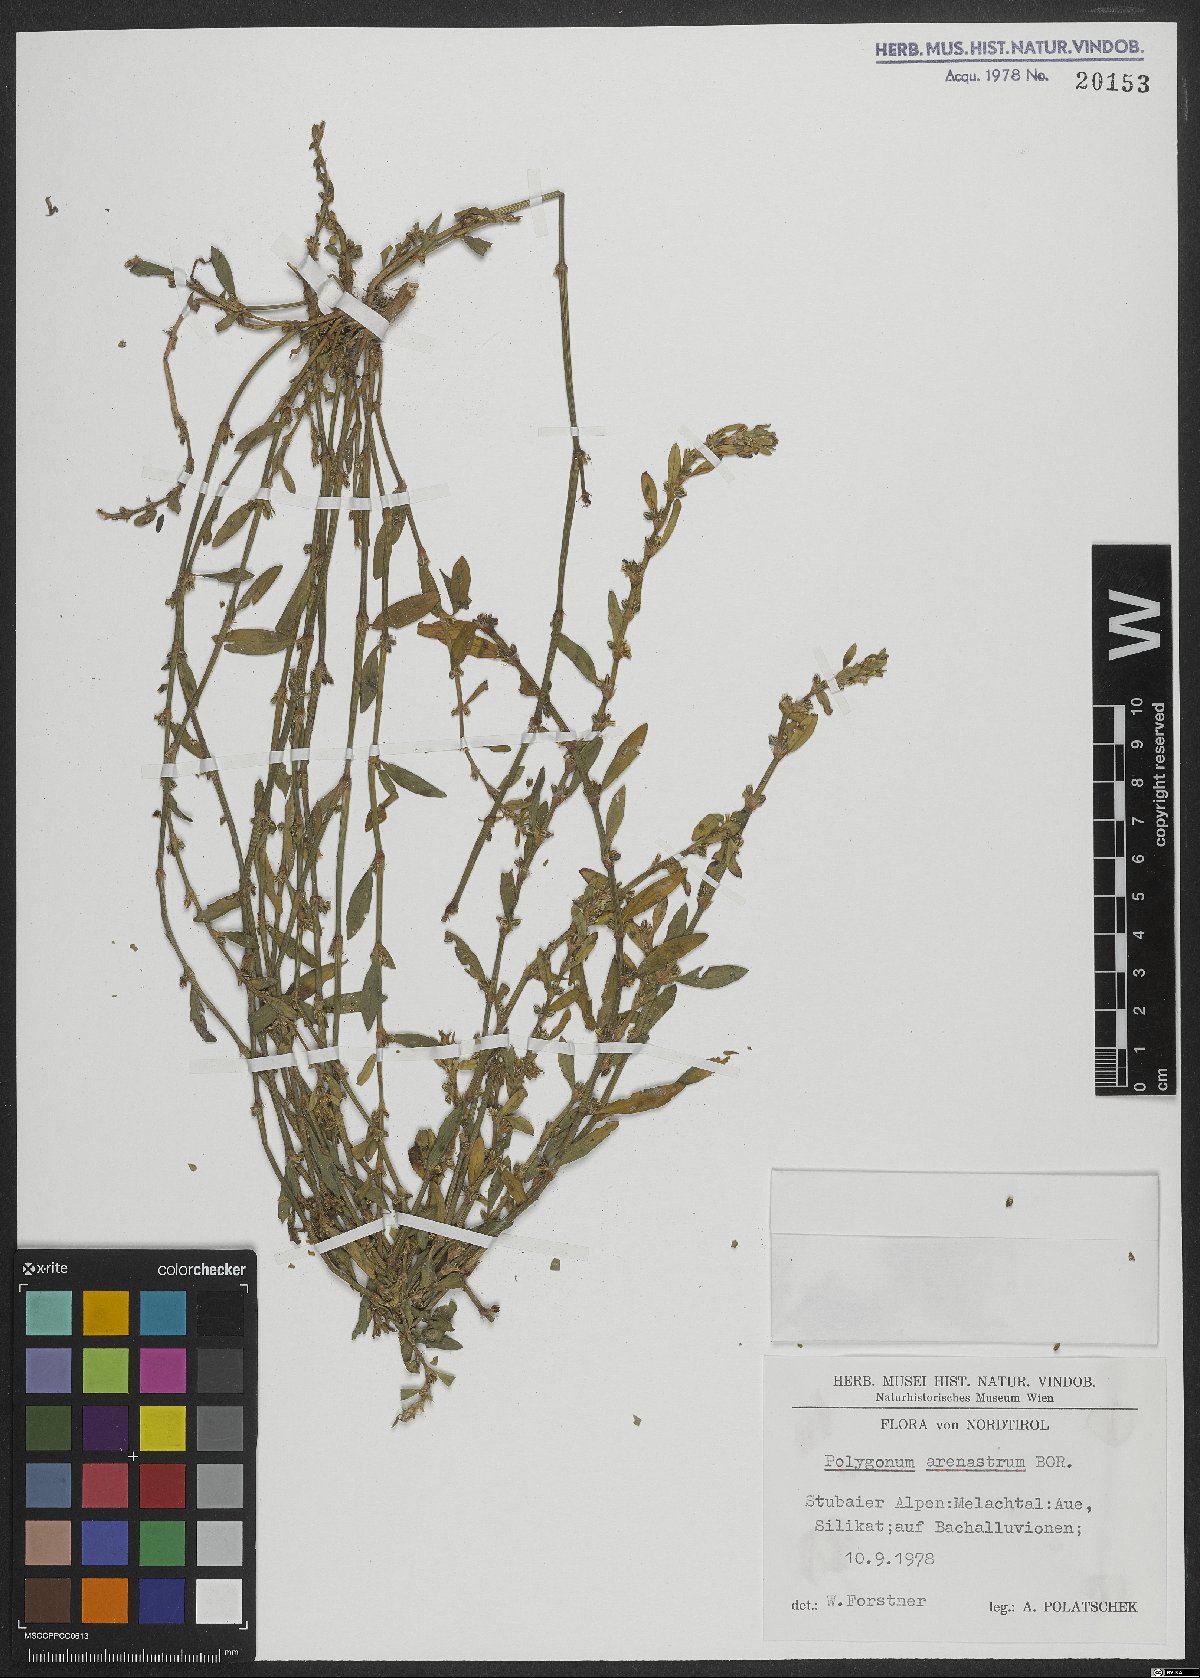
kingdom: Plantae
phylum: Tracheophyta
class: Magnoliopsida
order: Caryophyllales
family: Polygonaceae
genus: Polygonum
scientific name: Polygonum arenastrum
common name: Equal-leaved knotgrass
